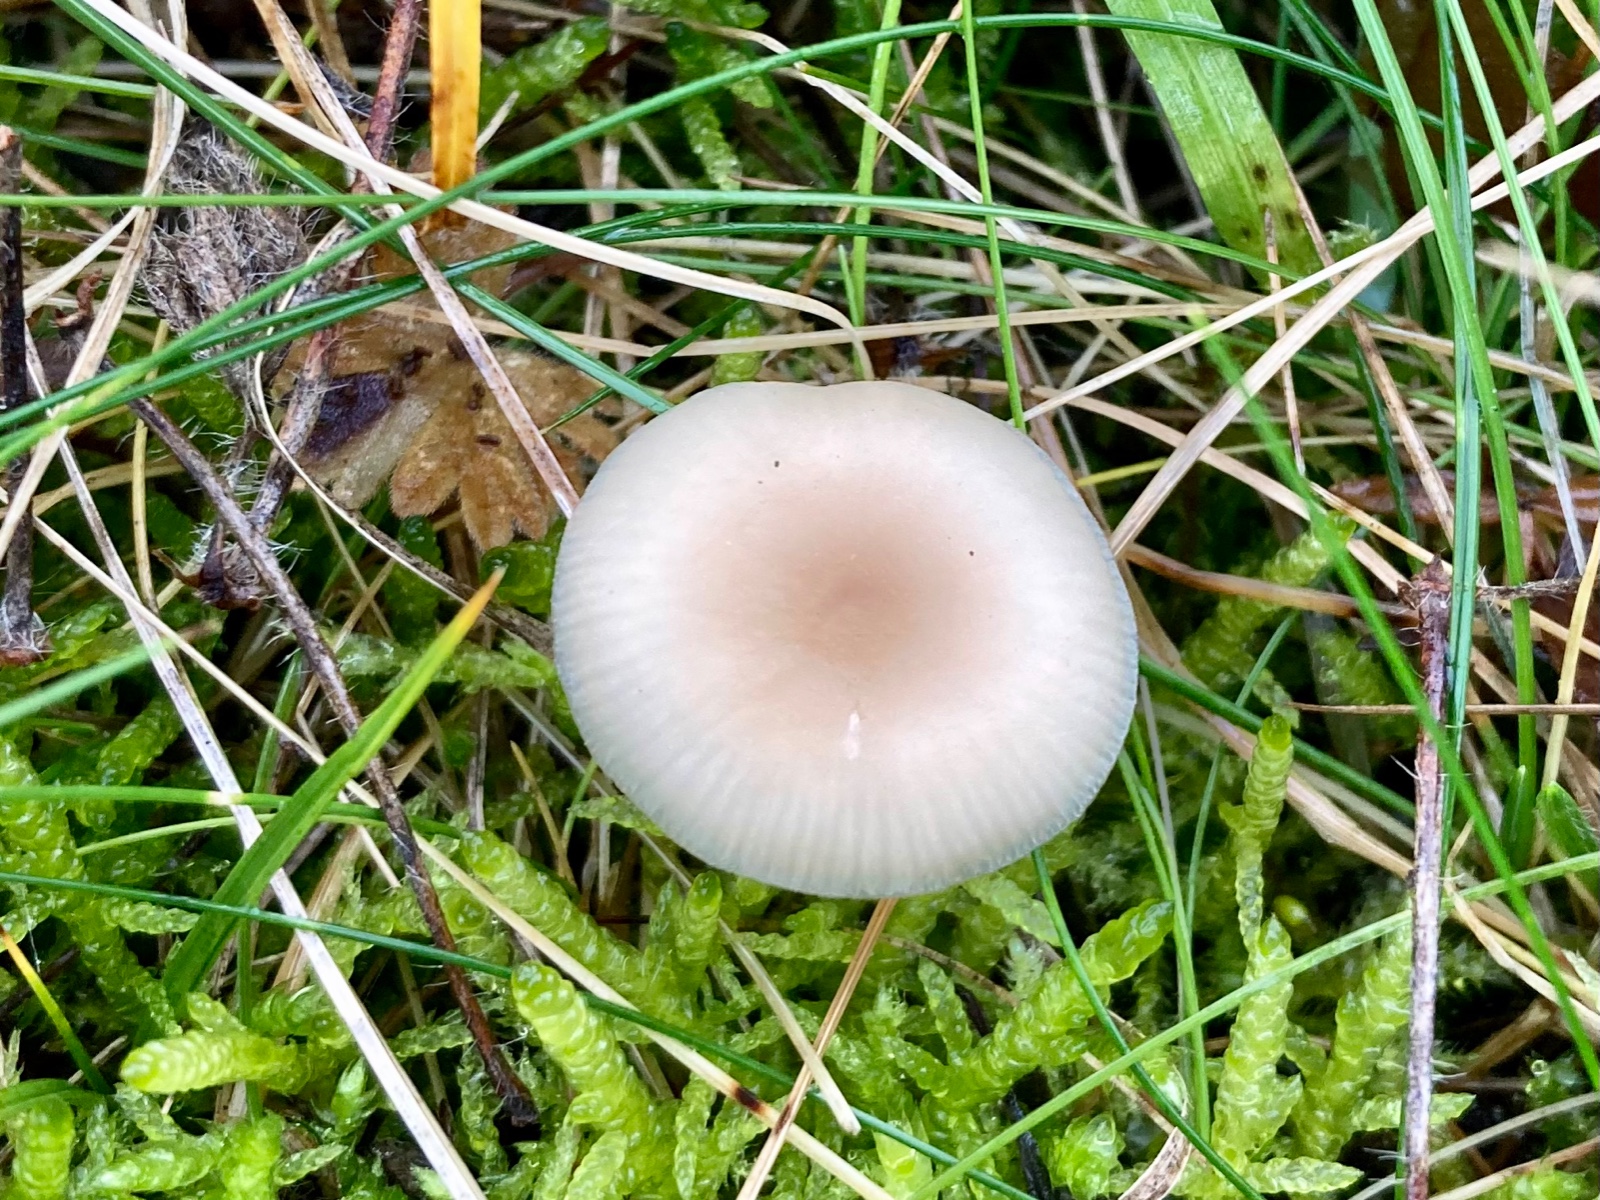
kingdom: Fungi
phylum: Basidiomycota
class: Agaricomycetes
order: Agaricales
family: Tricholomataceae
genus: Clitocybe
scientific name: Clitocybe fragrans
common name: vellugtende tragthat
